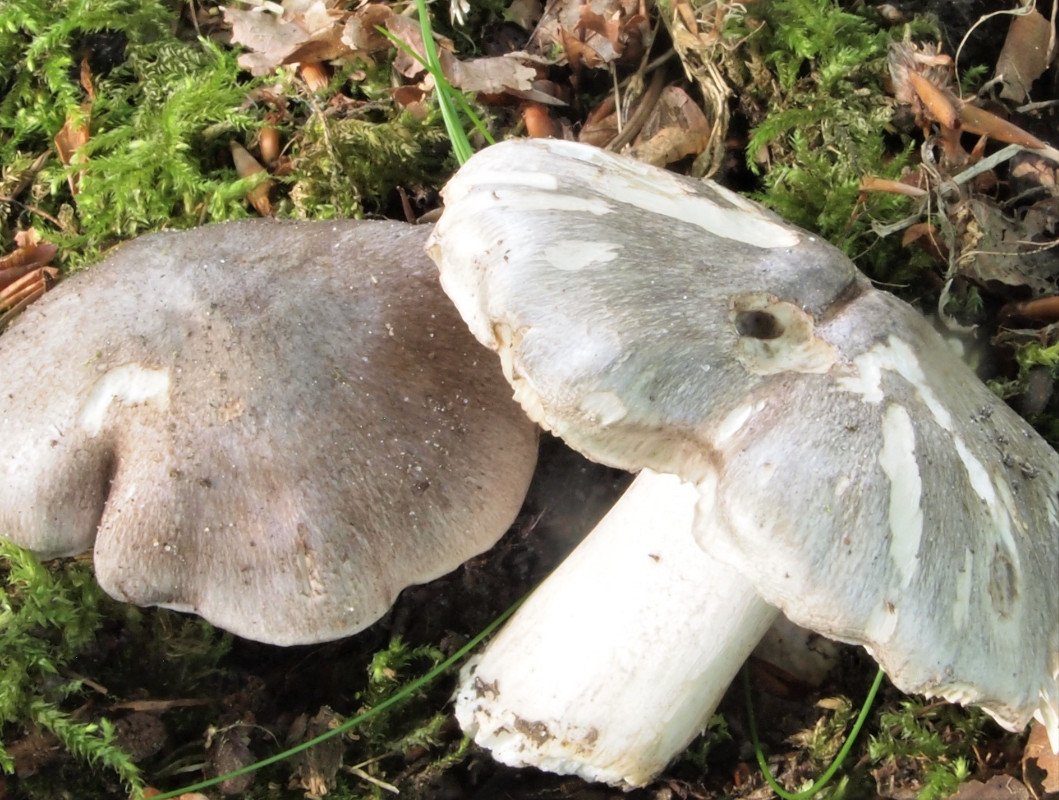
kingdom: Fungi
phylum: Basidiomycota
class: Agaricomycetes
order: Agaricales
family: Tricholomataceae
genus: Tricholoma
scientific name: Tricholoma sciodes
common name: stribet ridderhat
